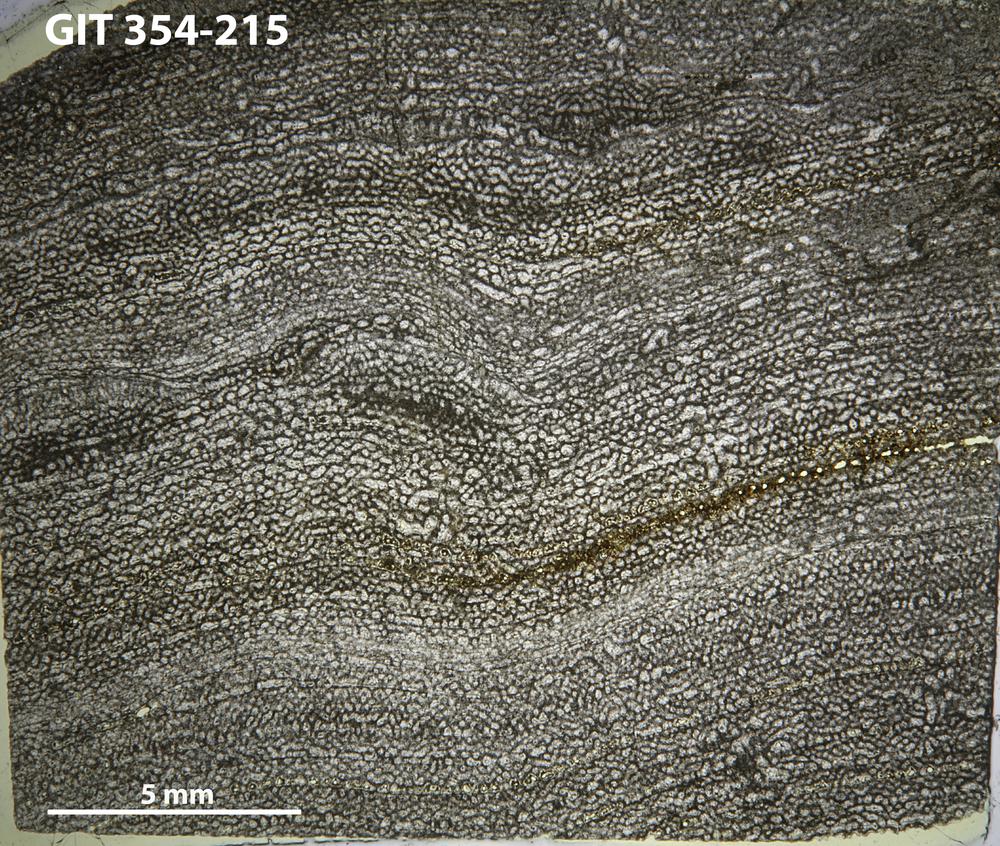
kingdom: Animalia
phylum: Porifera
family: Clathrodictyidae
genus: Clathrodictyon
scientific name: Clathrodictyon kudriavzevi
